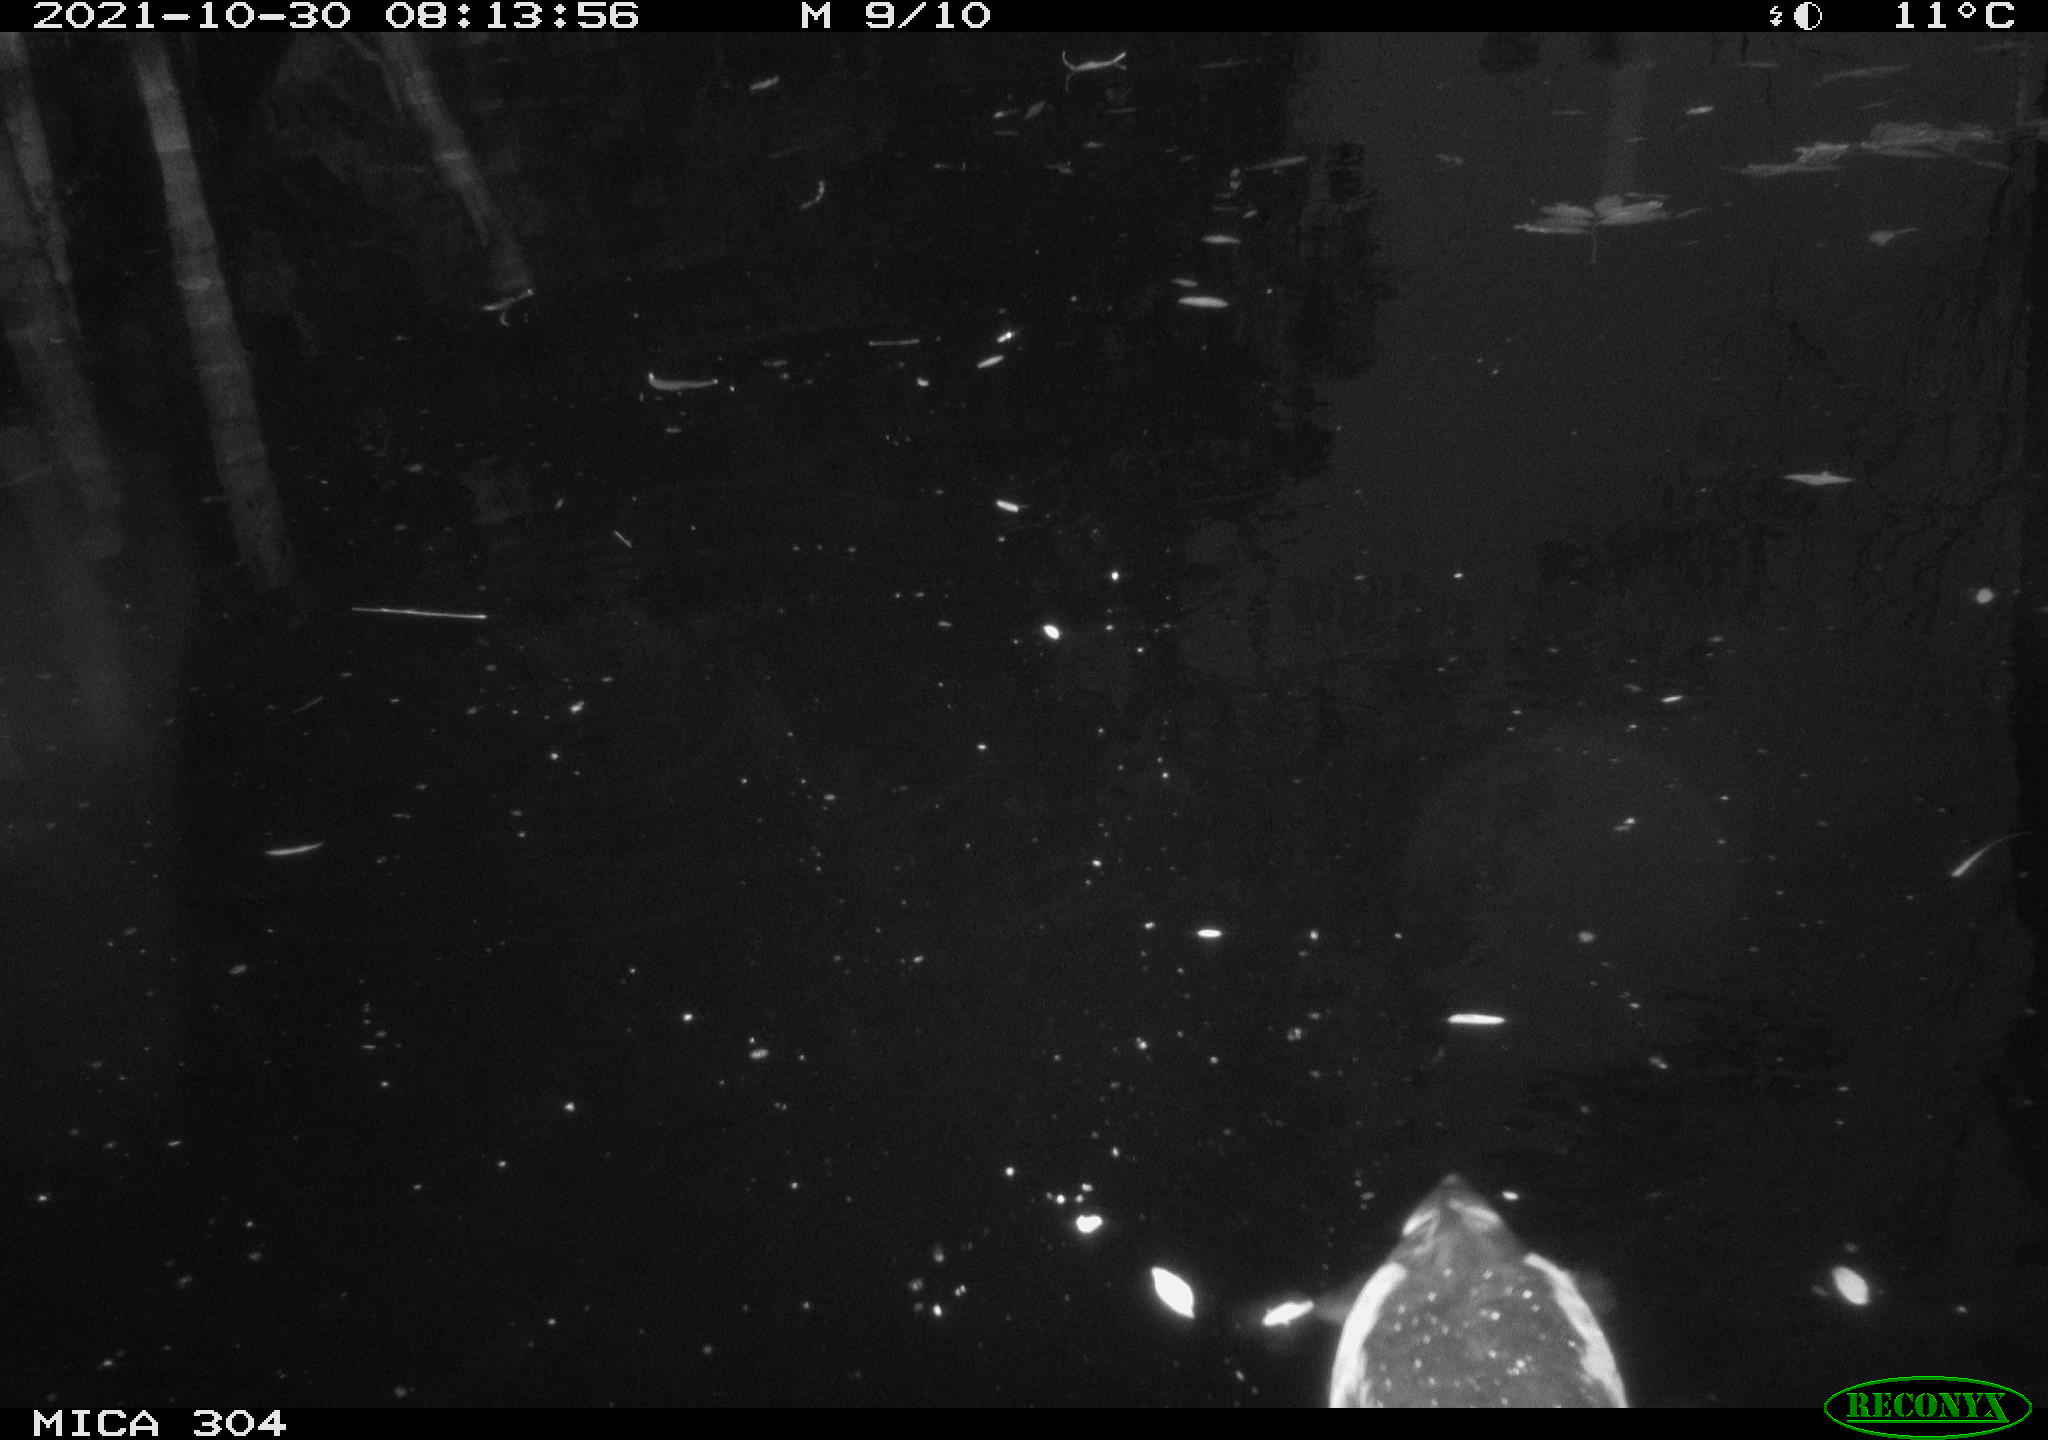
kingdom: Animalia
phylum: Chordata
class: Aves
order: Gruiformes
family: Rallidae
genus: Fulica
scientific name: Fulica atra
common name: Eurasian coot
